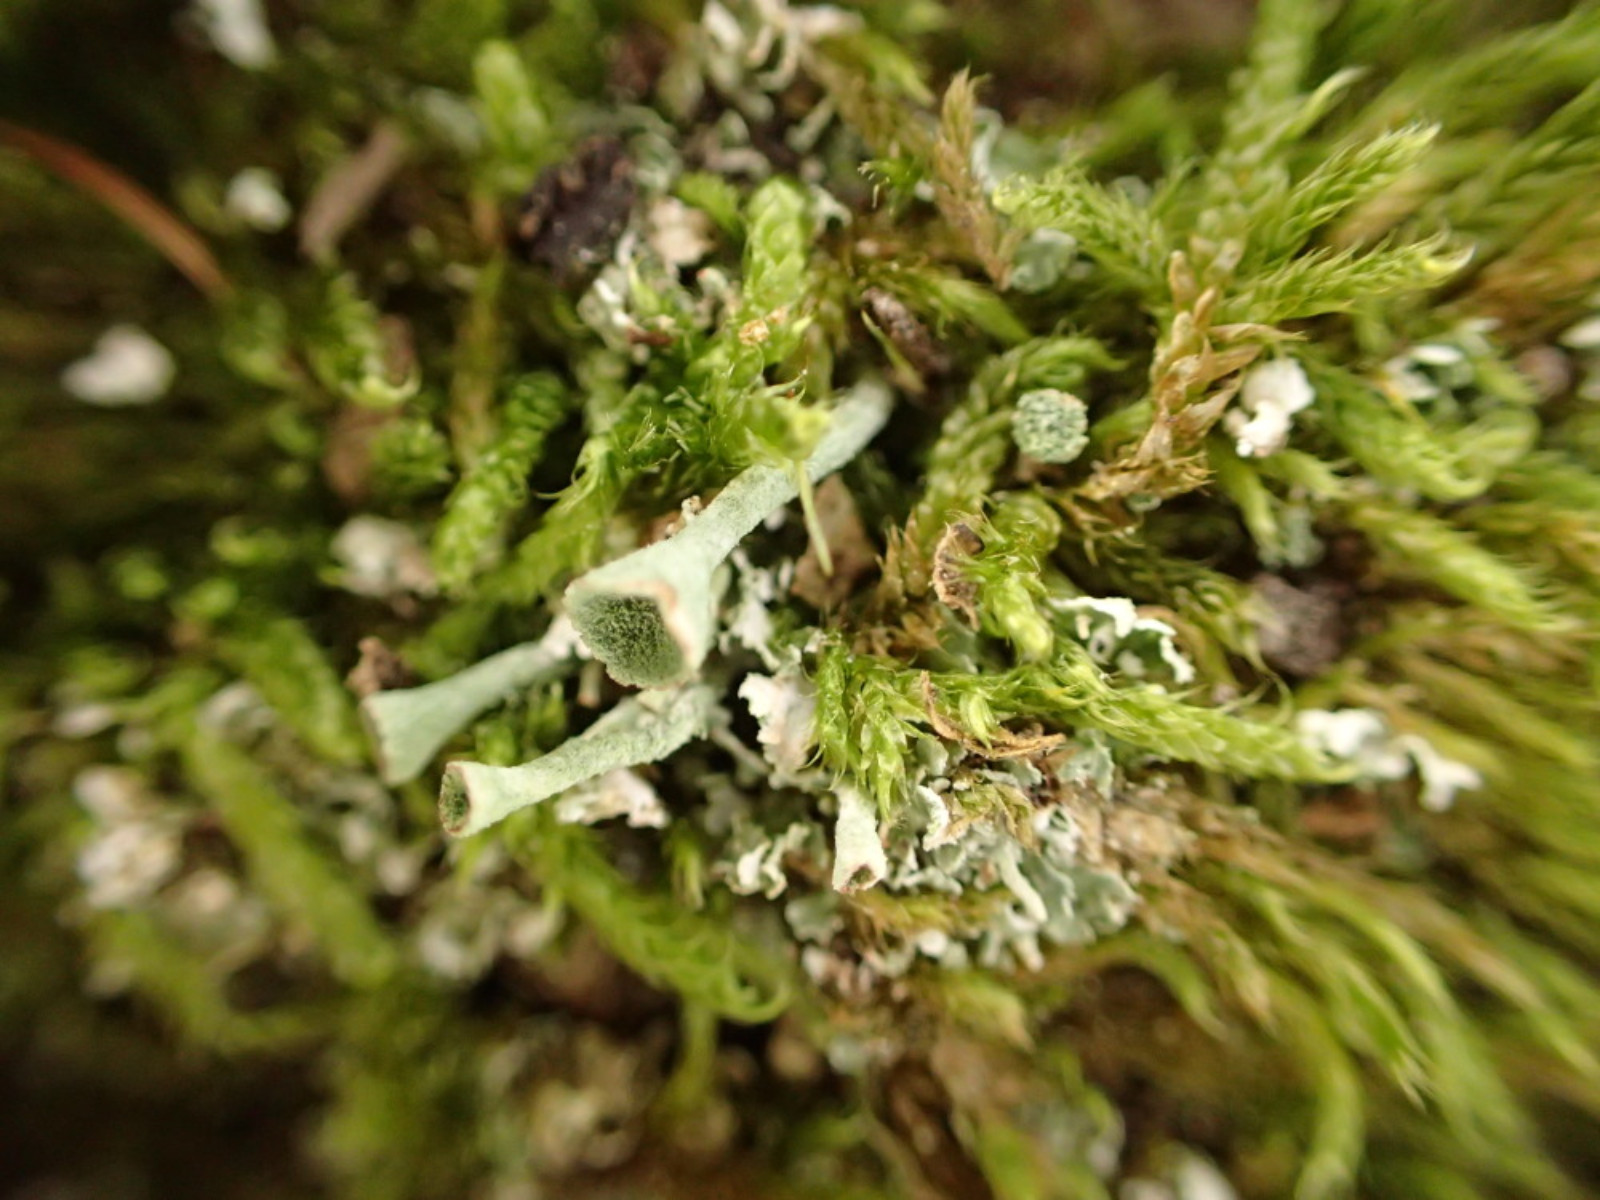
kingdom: Fungi
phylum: Ascomycota
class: Lecanoromycetes
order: Lecanorales
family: Cladoniaceae
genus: Cladonia
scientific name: Cladonia
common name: brungrøn bægerlav
